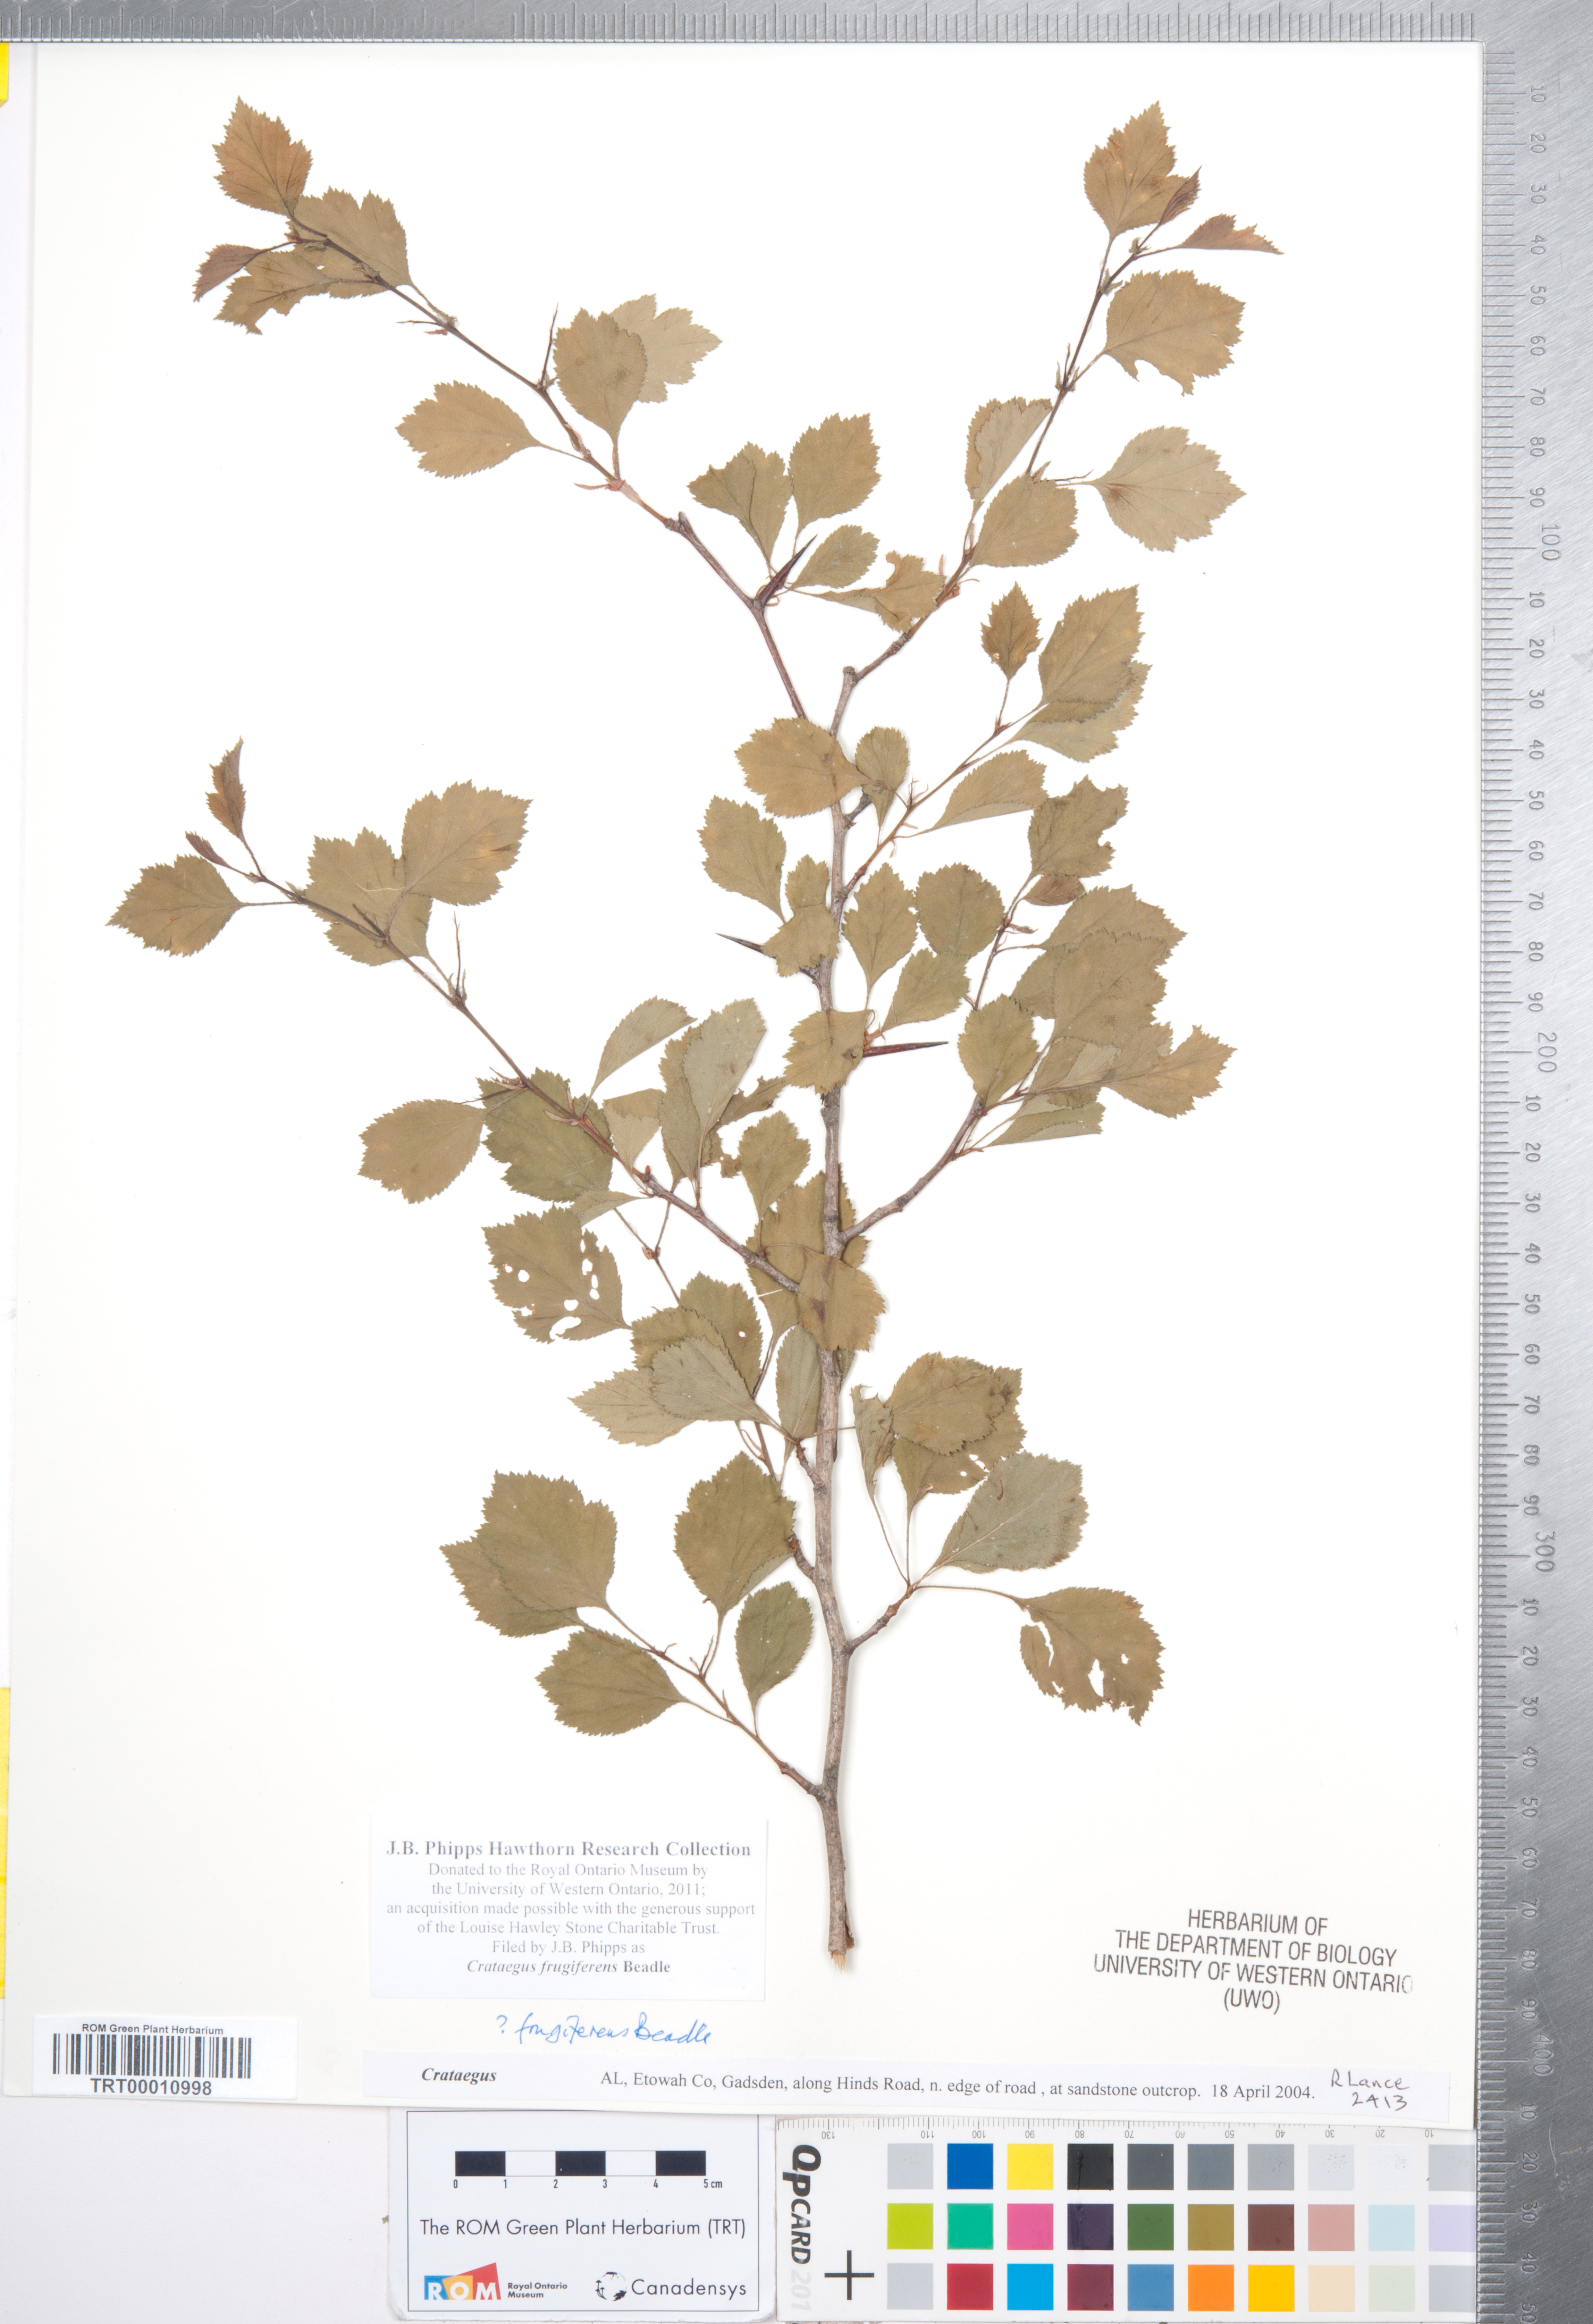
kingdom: Plantae
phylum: Tracheophyta
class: Magnoliopsida
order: Rosales
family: Rosaceae
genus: Crataegus
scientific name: Crataegus alleghaniensis
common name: Allegheny hawthorn
